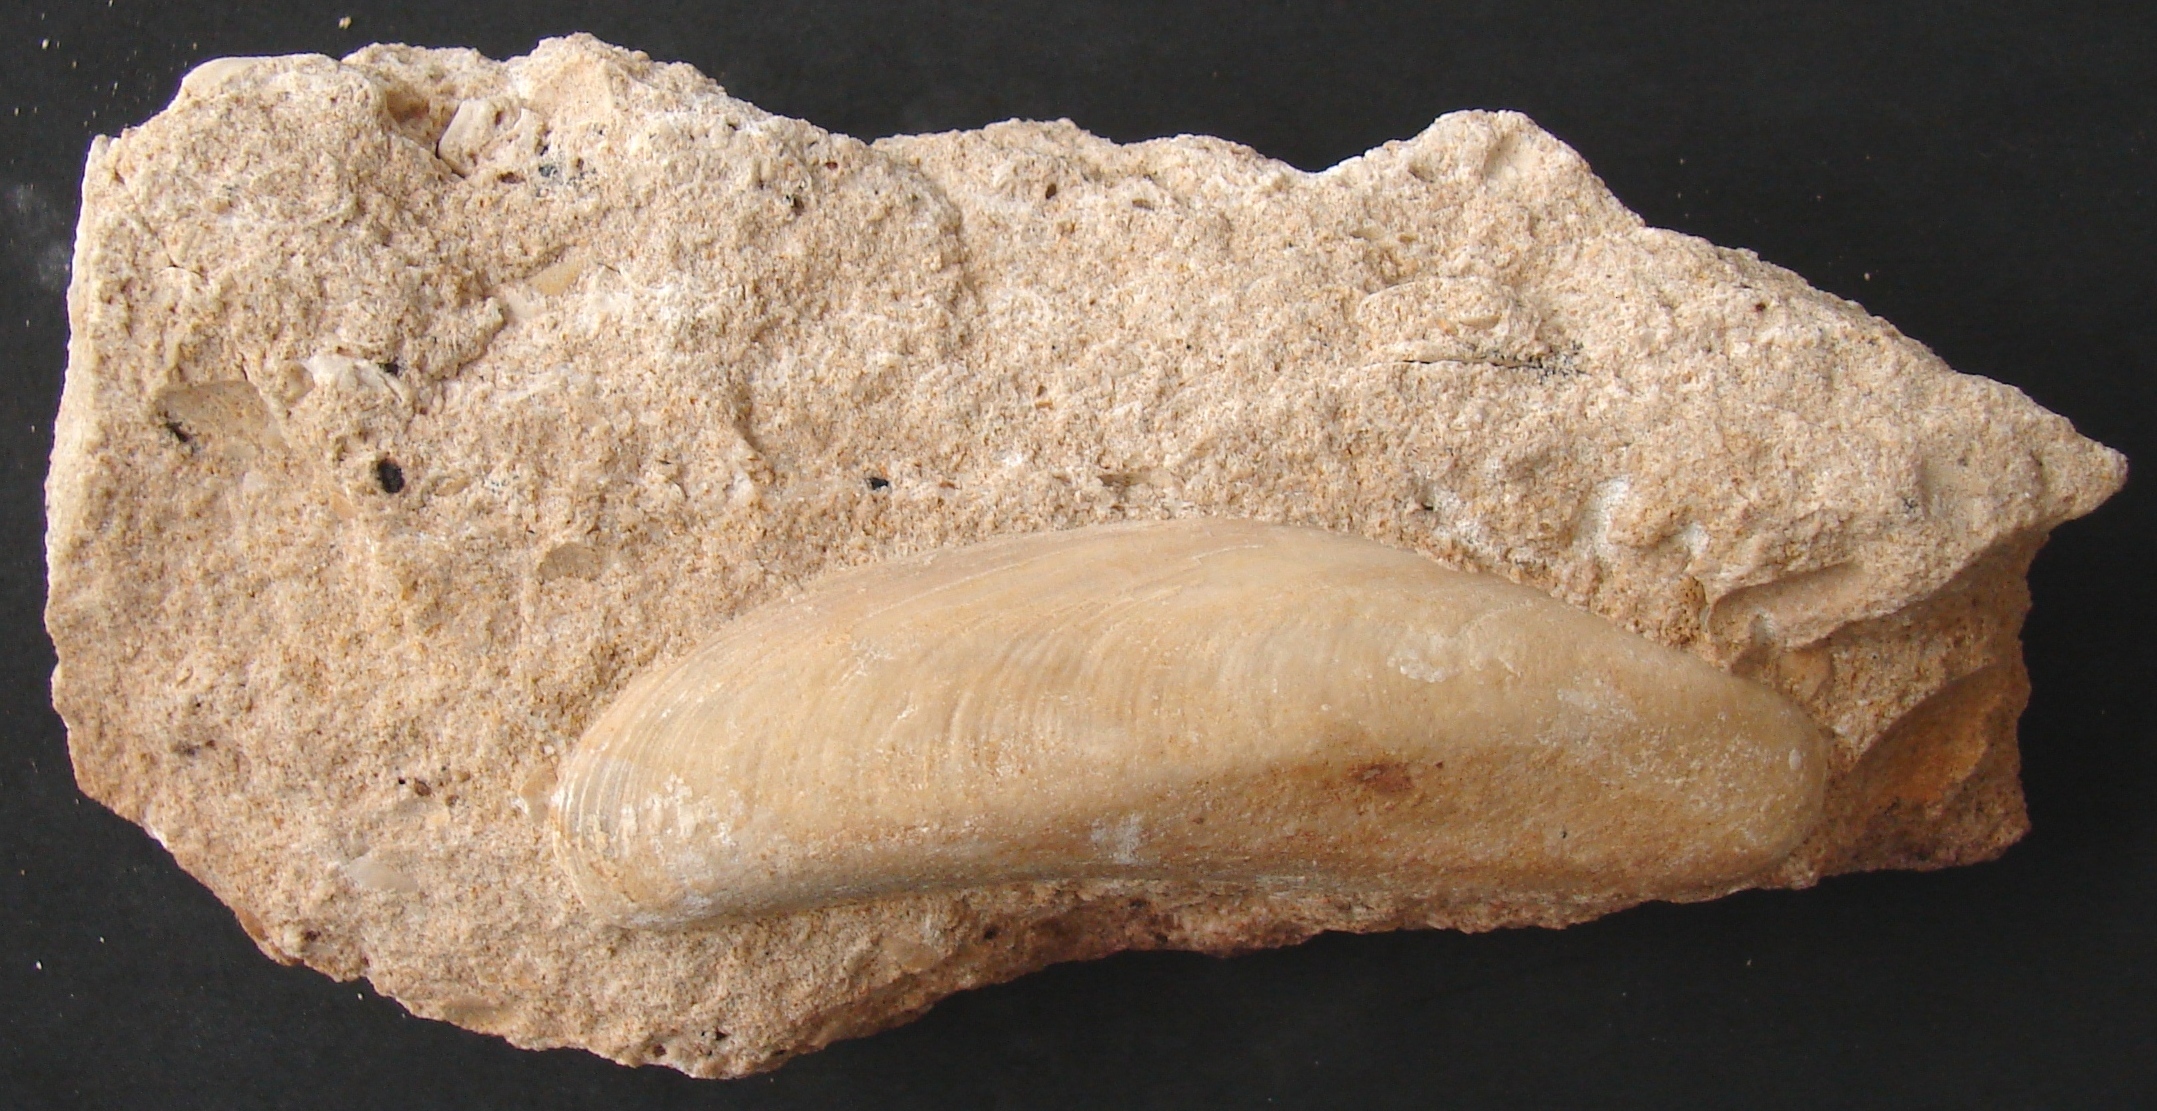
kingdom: Animalia
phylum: Mollusca
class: Bivalvia
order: Mytilida
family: Mytilidae
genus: Modiolus
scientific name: Modiolus scalprum
